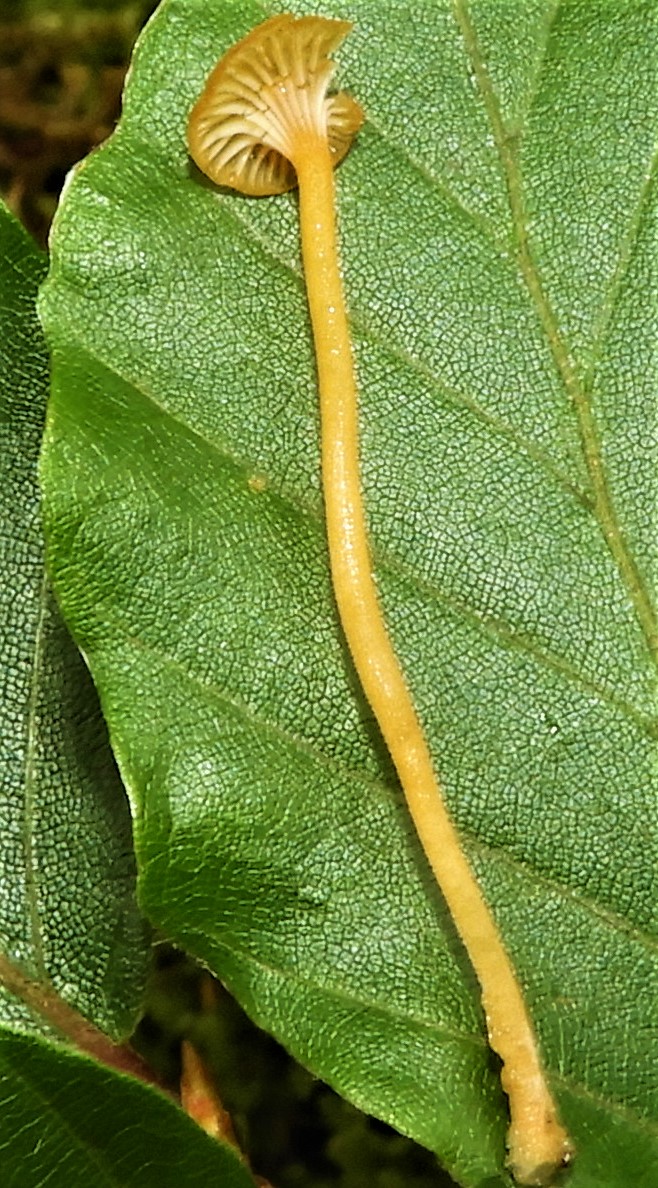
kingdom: Fungi
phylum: Basidiomycota
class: Agaricomycetes
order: Hymenochaetales
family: Rickenellaceae
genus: Rickenella
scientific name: Rickenella fibula
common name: orange mosnavlehat
